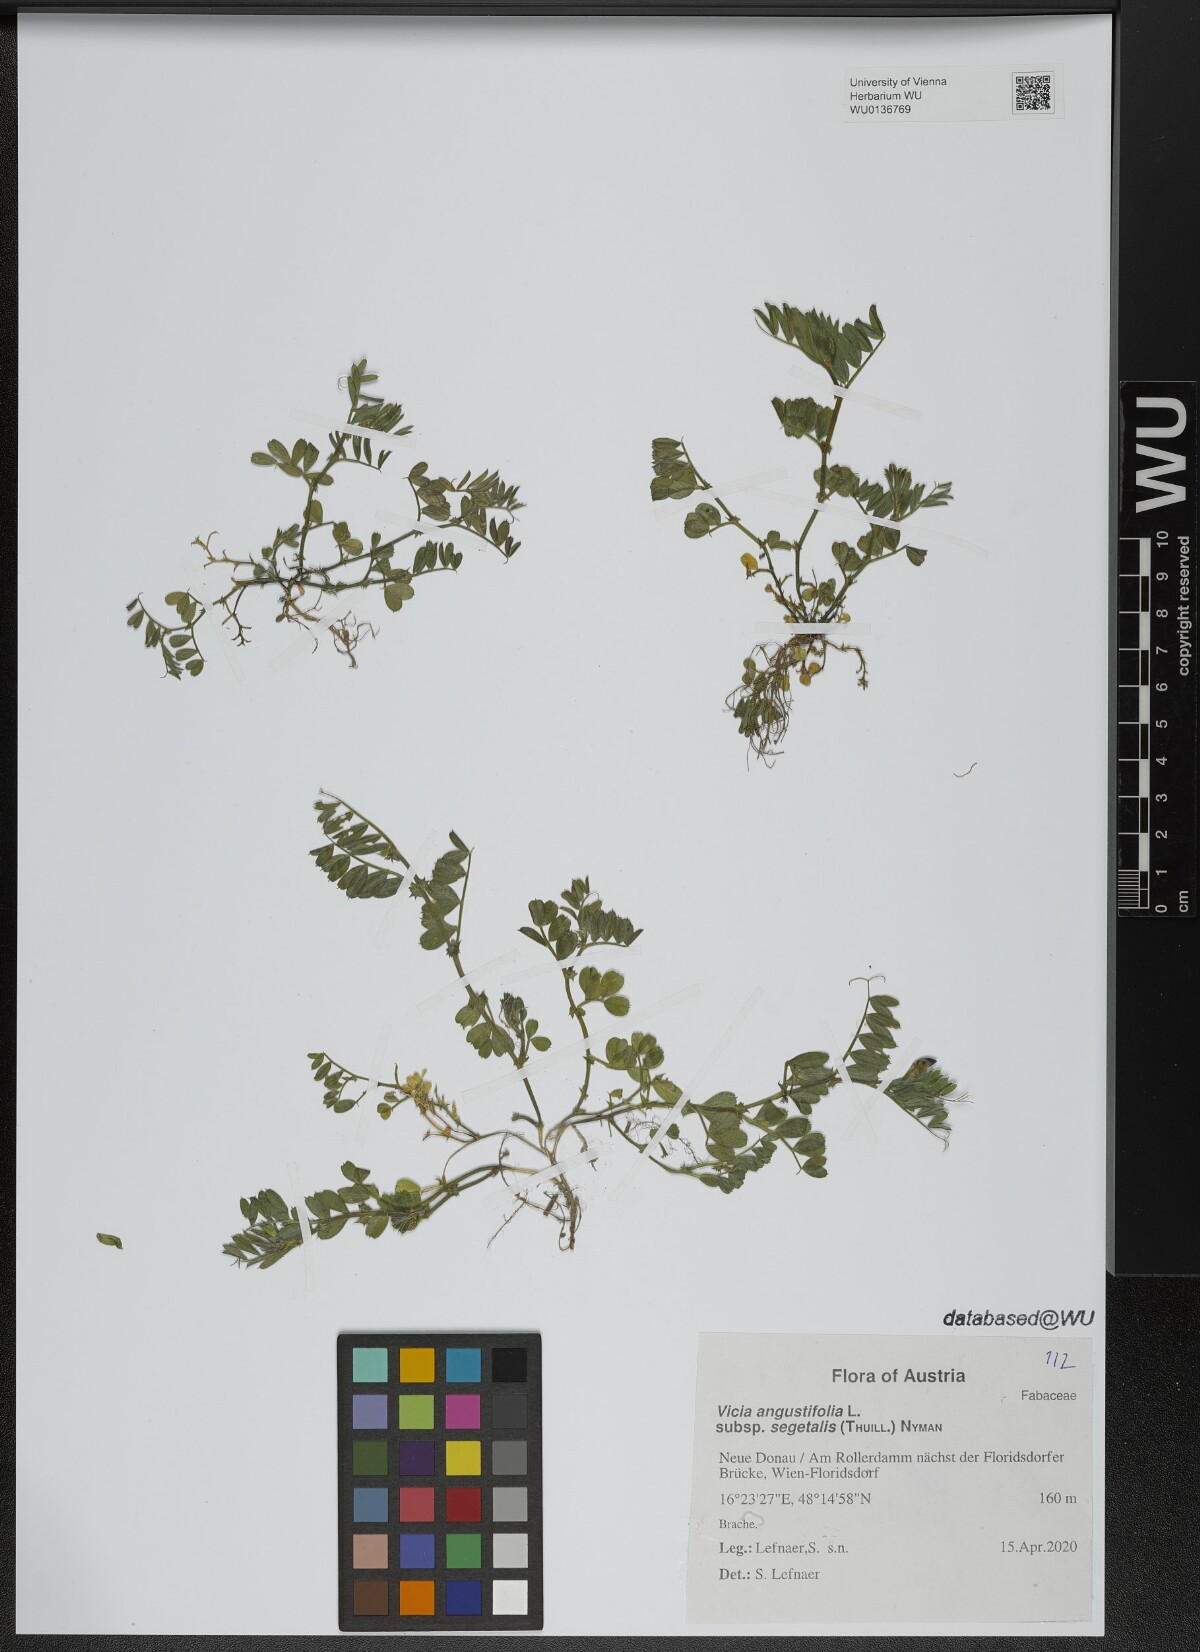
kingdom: Plantae
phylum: Tracheophyta
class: Magnoliopsida
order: Fabales
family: Fabaceae
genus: Vicia
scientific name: Vicia sativa
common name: Garden vetch
